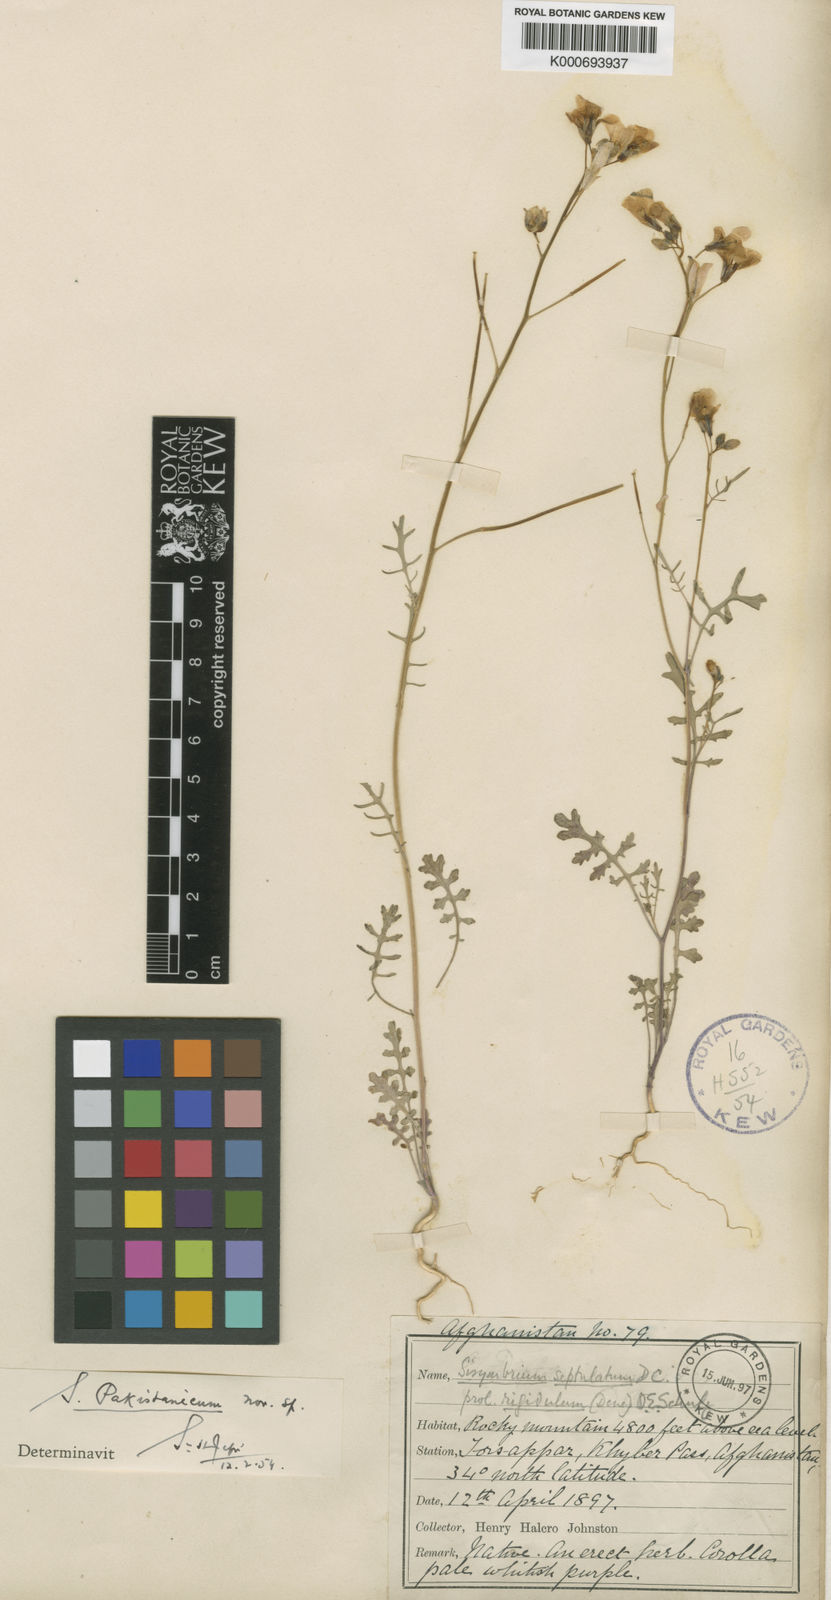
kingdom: Plantae
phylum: Tracheophyta
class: Magnoliopsida
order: Brassicales
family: Brassicaceae
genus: Sisymbrium
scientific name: Sisymbrium
